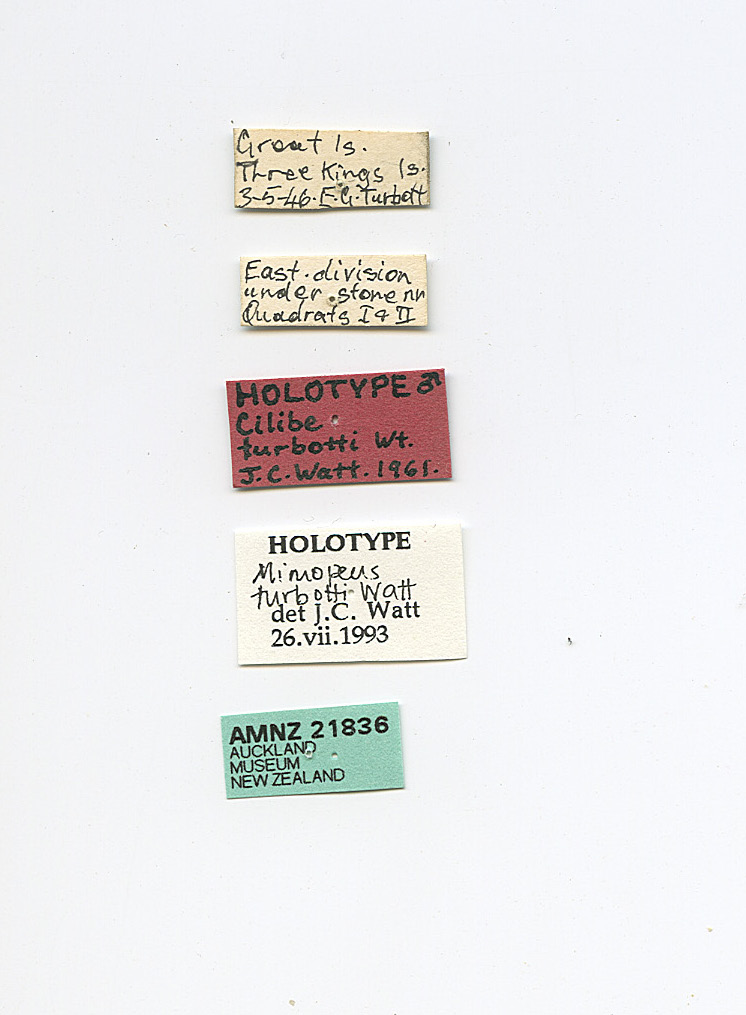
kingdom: Animalia
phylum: Arthropoda
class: Insecta
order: Coleoptera
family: Tenebrionidae
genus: Mimopeus
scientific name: Mimopeus
